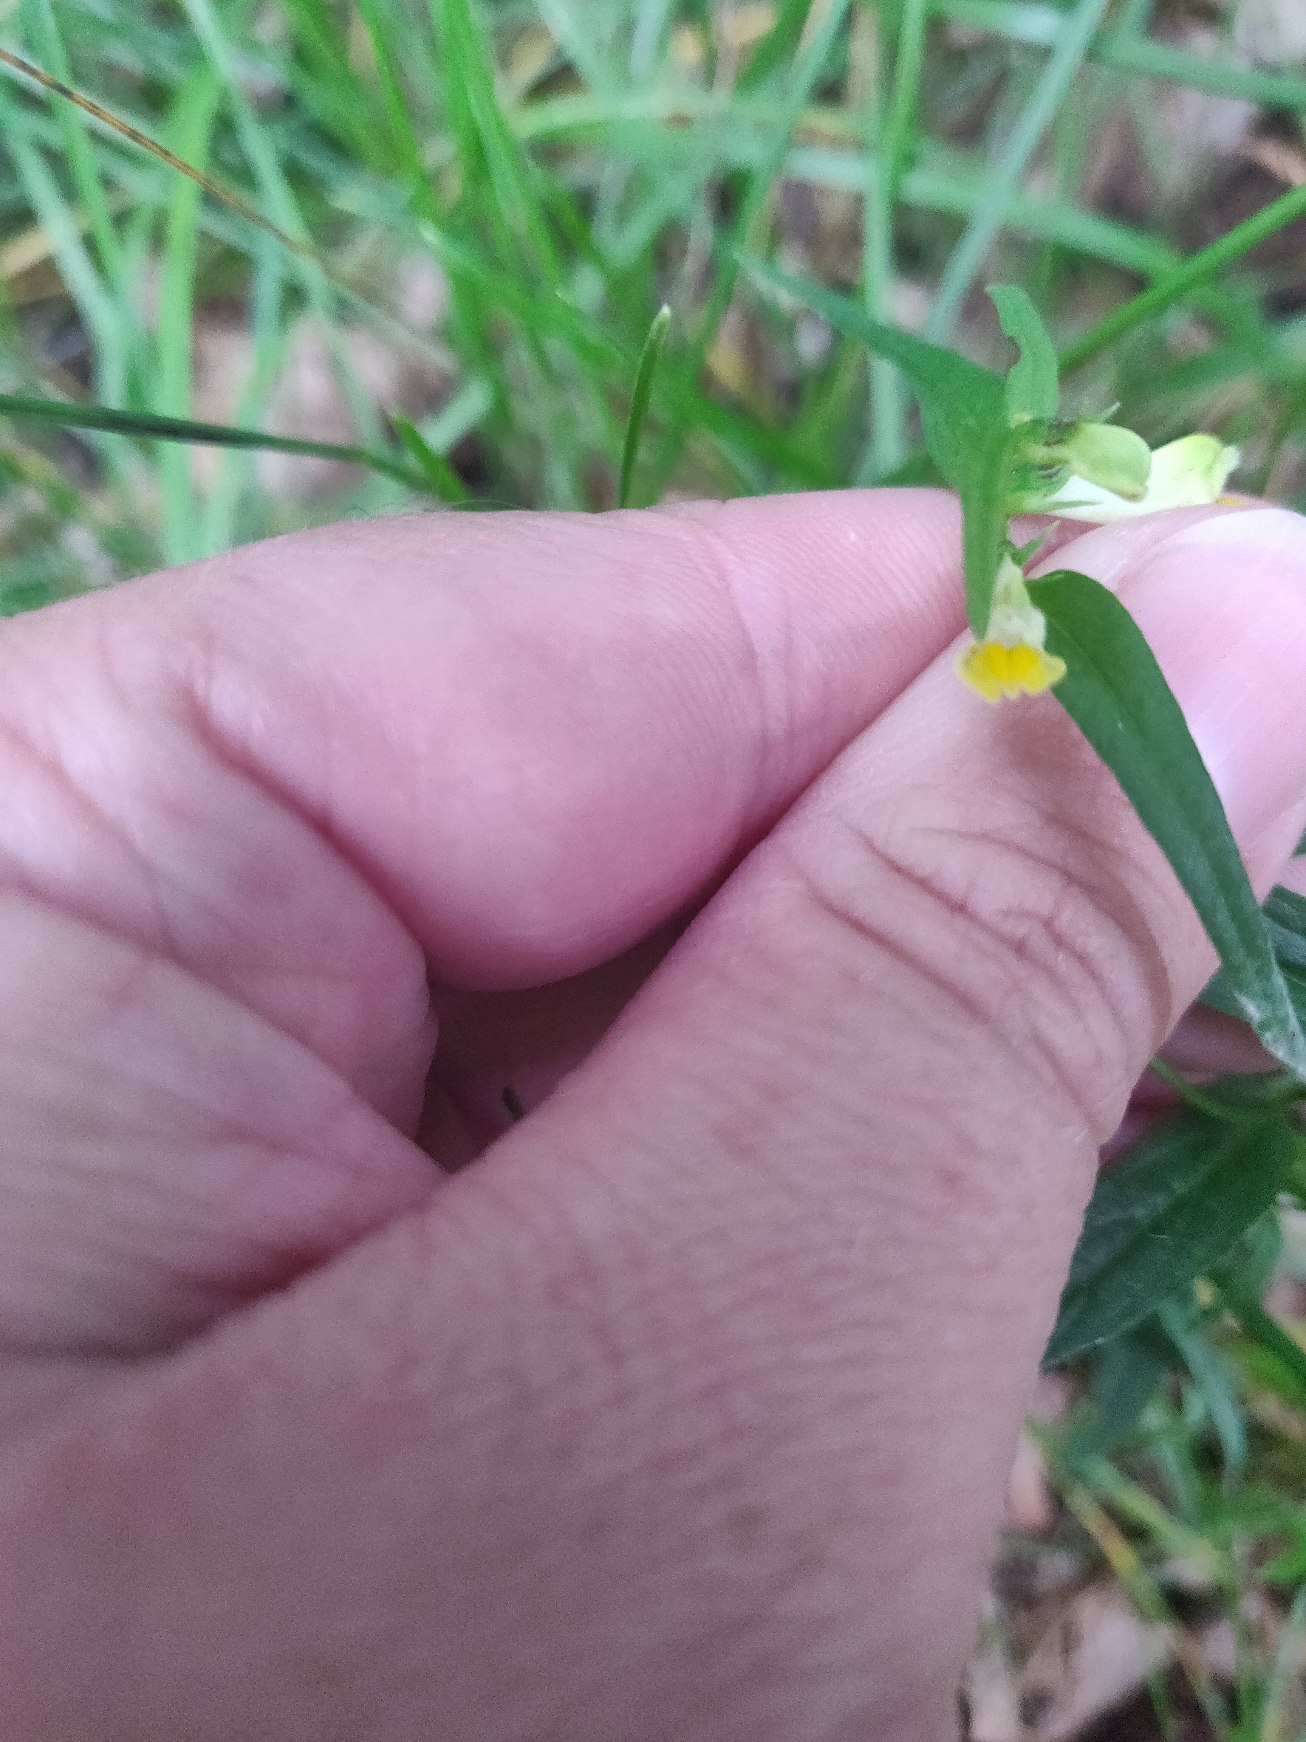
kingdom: Plantae
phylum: Tracheophyta
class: Magnoliopsida
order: Lamiales
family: Orobanchaceae
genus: Melampyrum
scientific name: Melampyrum pratense
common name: Almindelig kohvede
